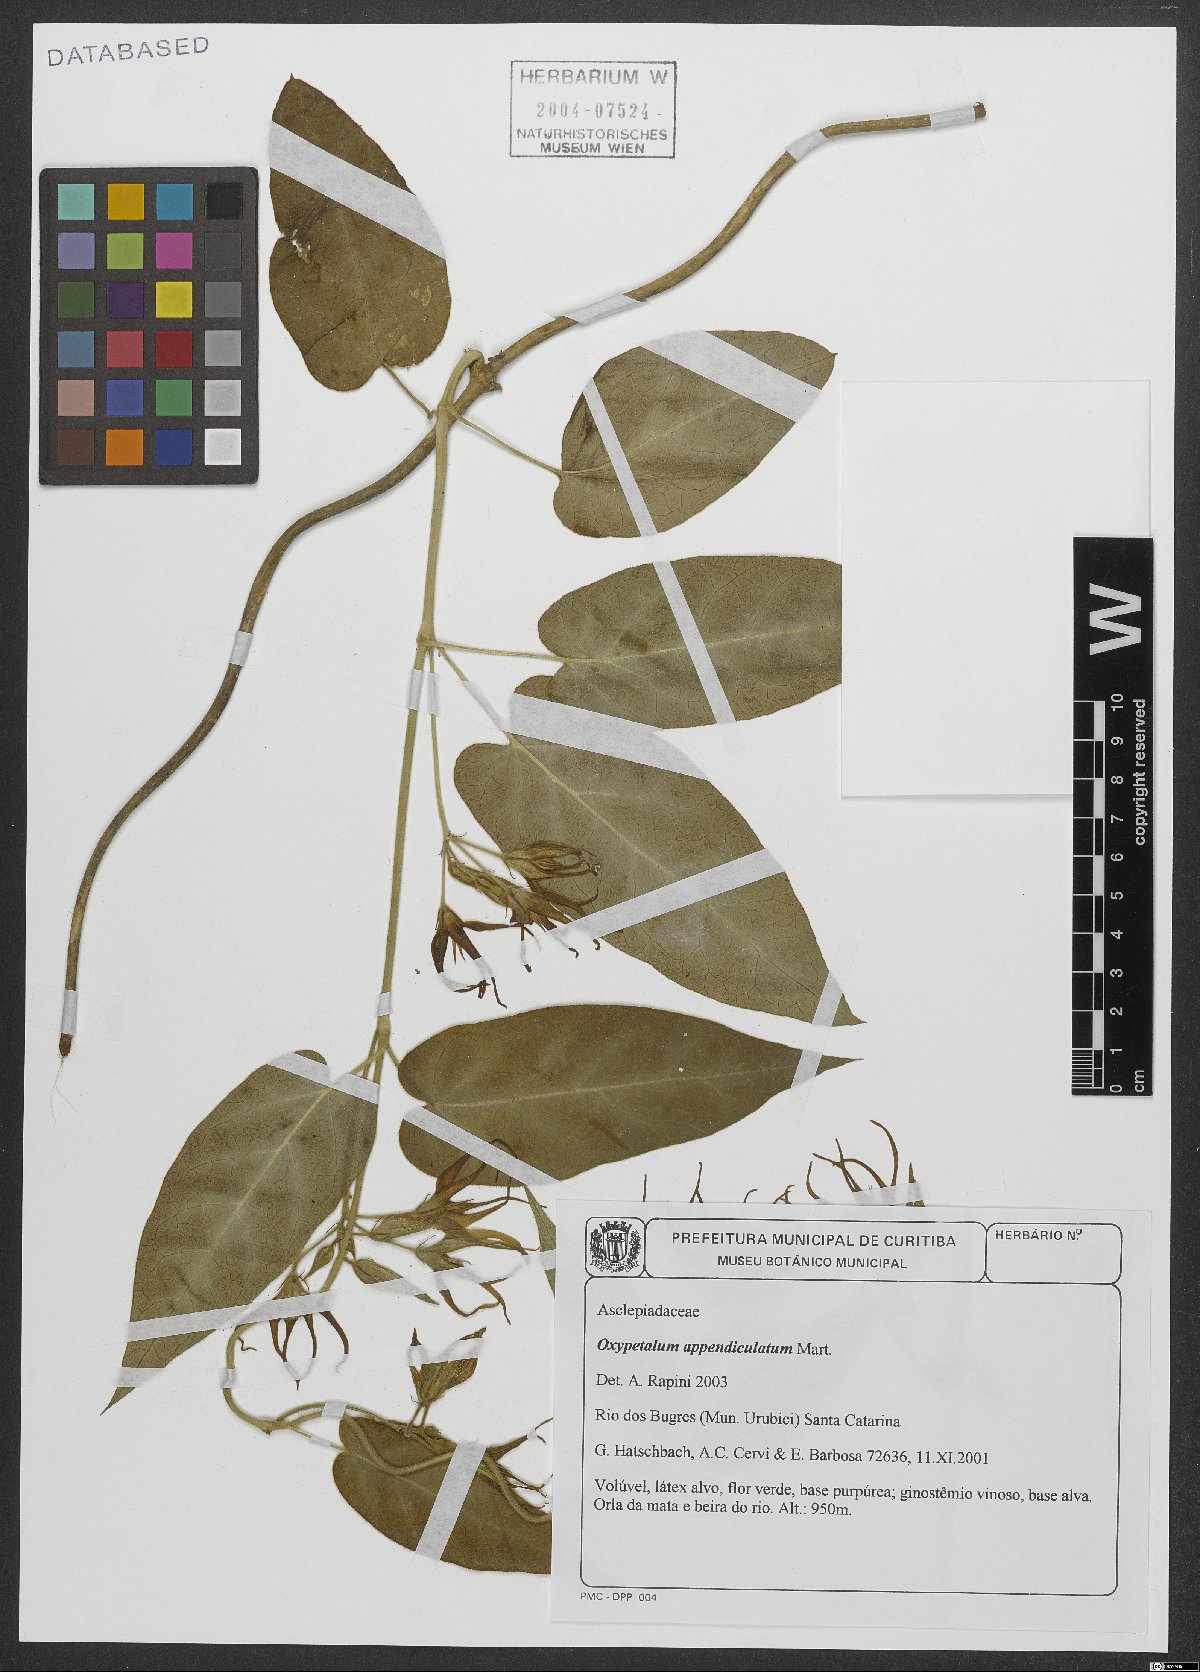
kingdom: Plantae
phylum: Tracheophyta
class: Magnoliopsida
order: Gentianales
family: Apocynaceae
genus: Oxypetalum
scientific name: Oxypetalum appendiculatum
